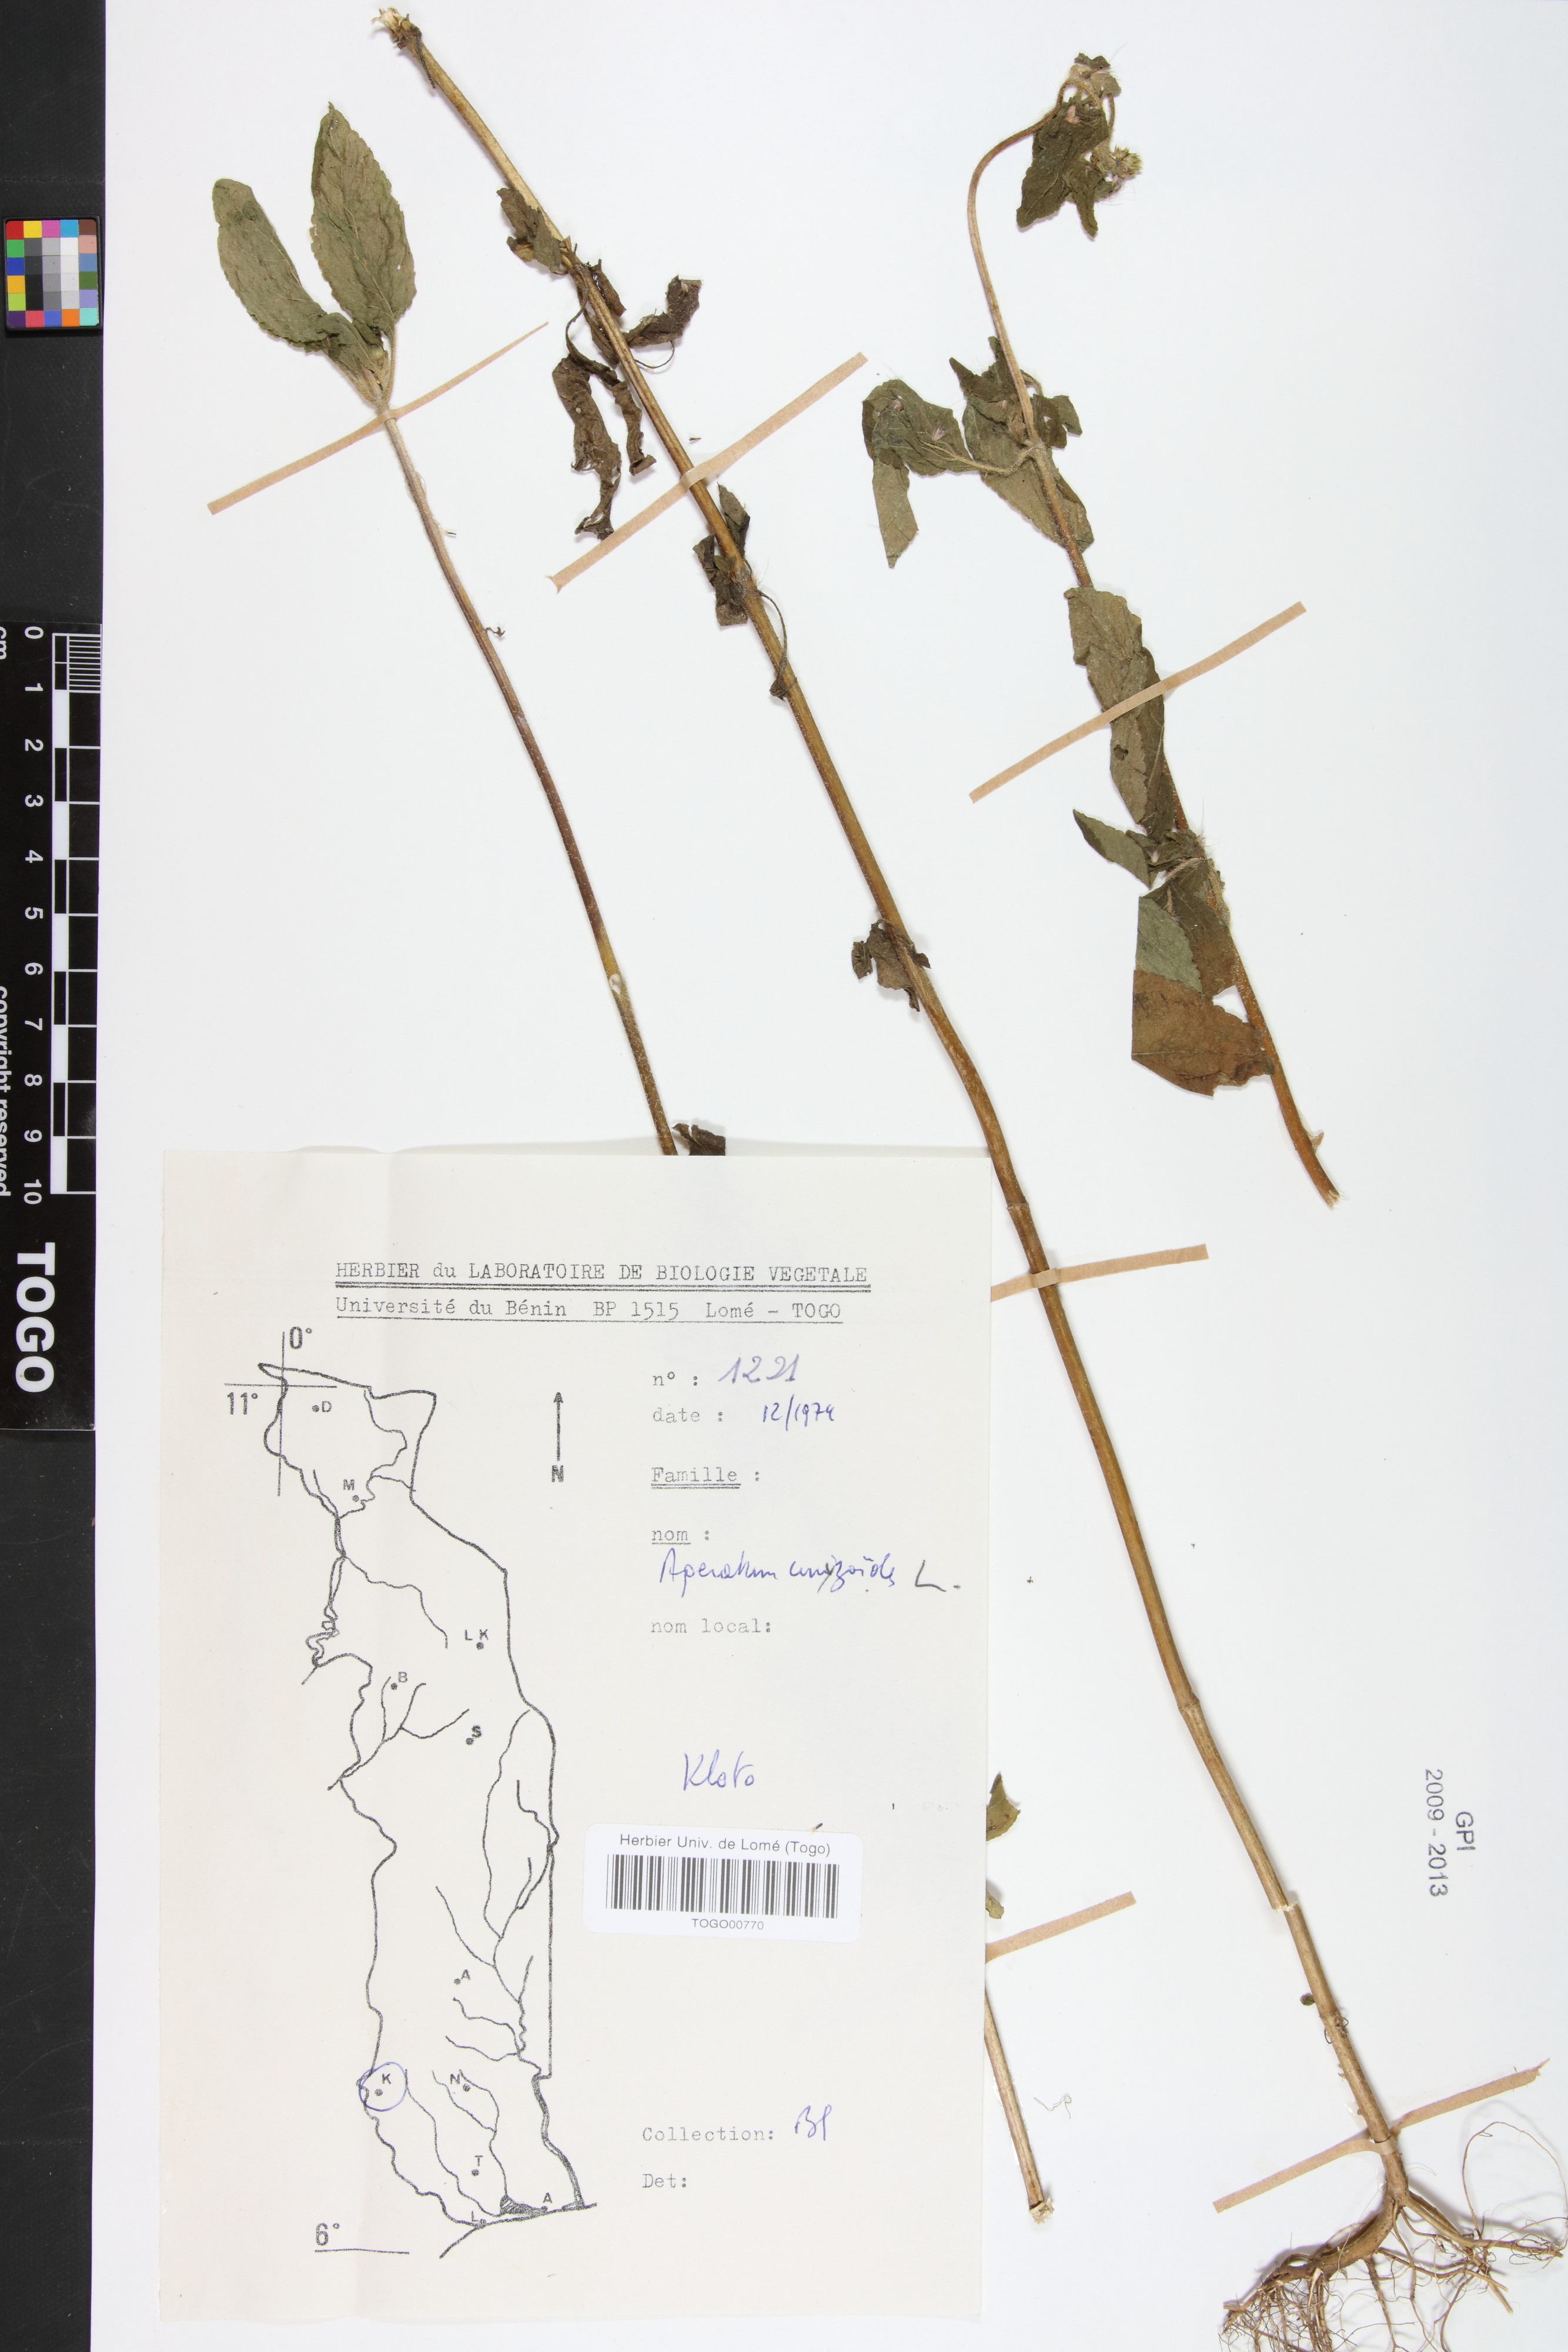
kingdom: Plantae
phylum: Tracheophyta
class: Magnoliopsida
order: Asterales
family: Asteraceae
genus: Ageratum
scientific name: Ageratum conyzoides
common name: Tropical whiteweed
